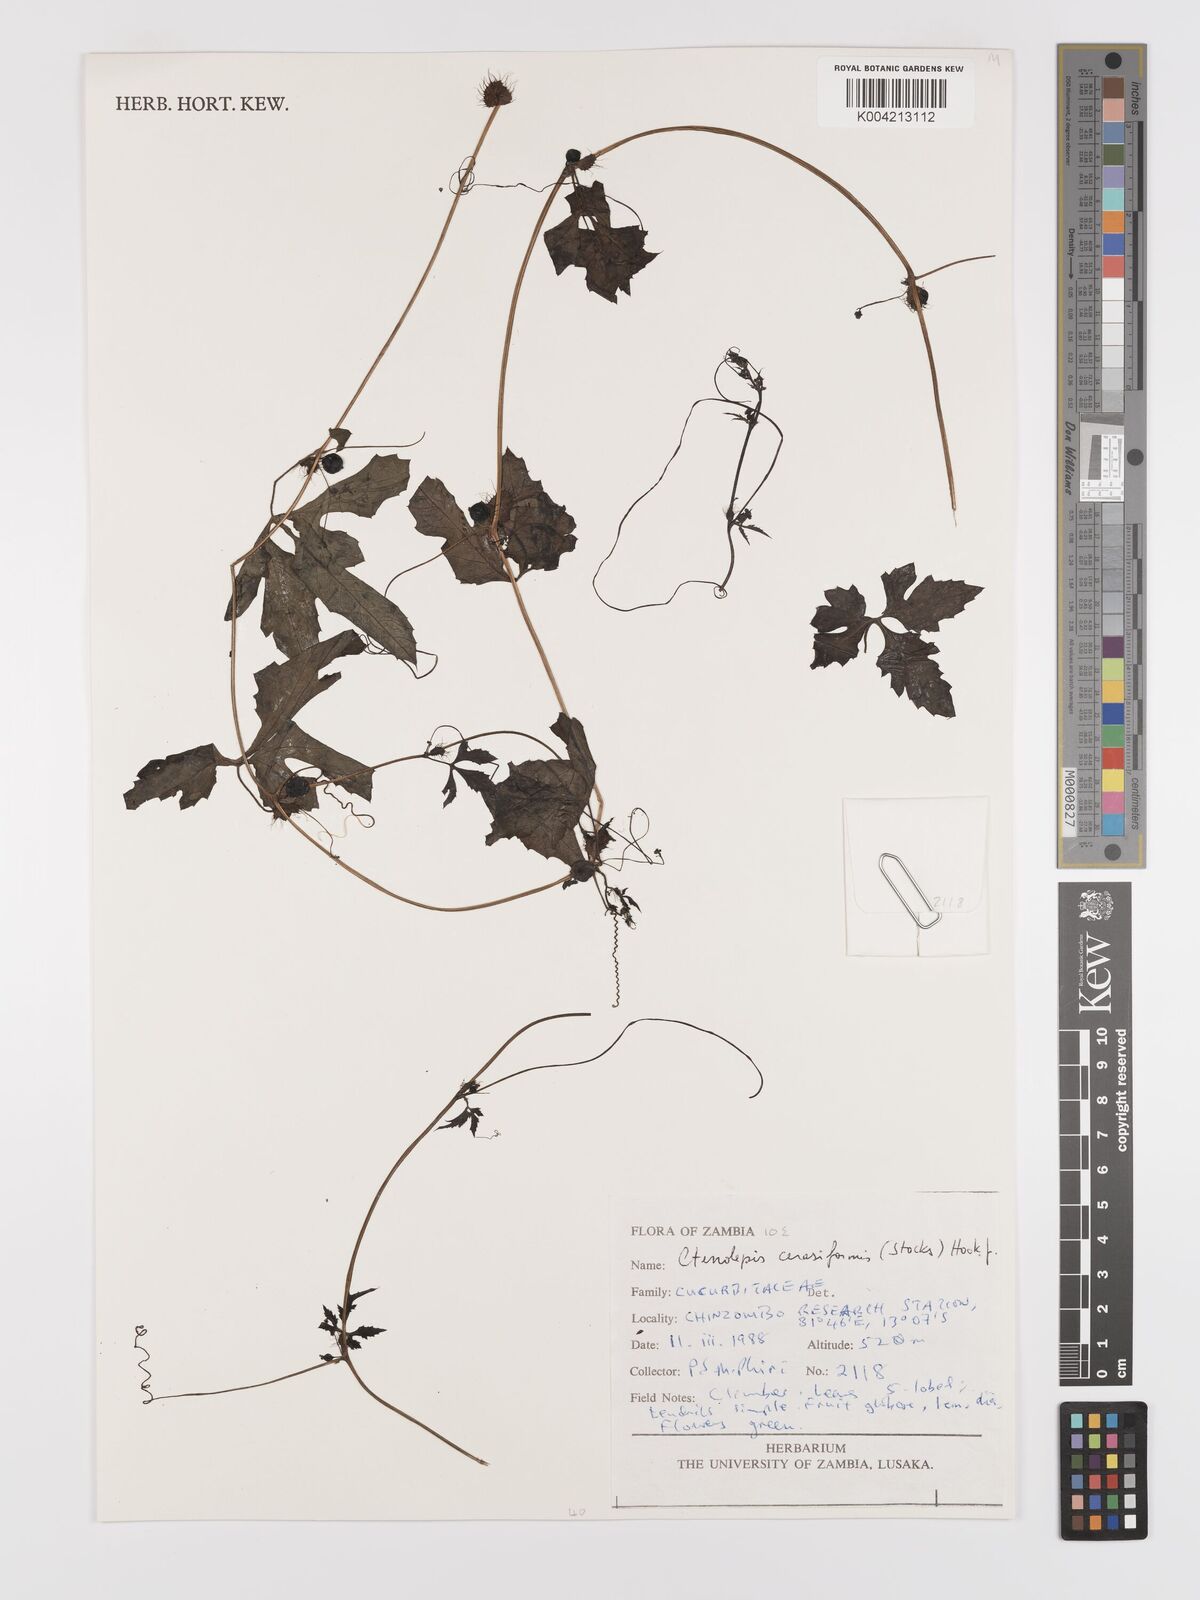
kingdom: Plantae
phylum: Tracheophyta
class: Magnoliopsida
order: Cucurbitales
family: Cucurbitaceae
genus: Blastania
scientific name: Blastania cerasiformis
